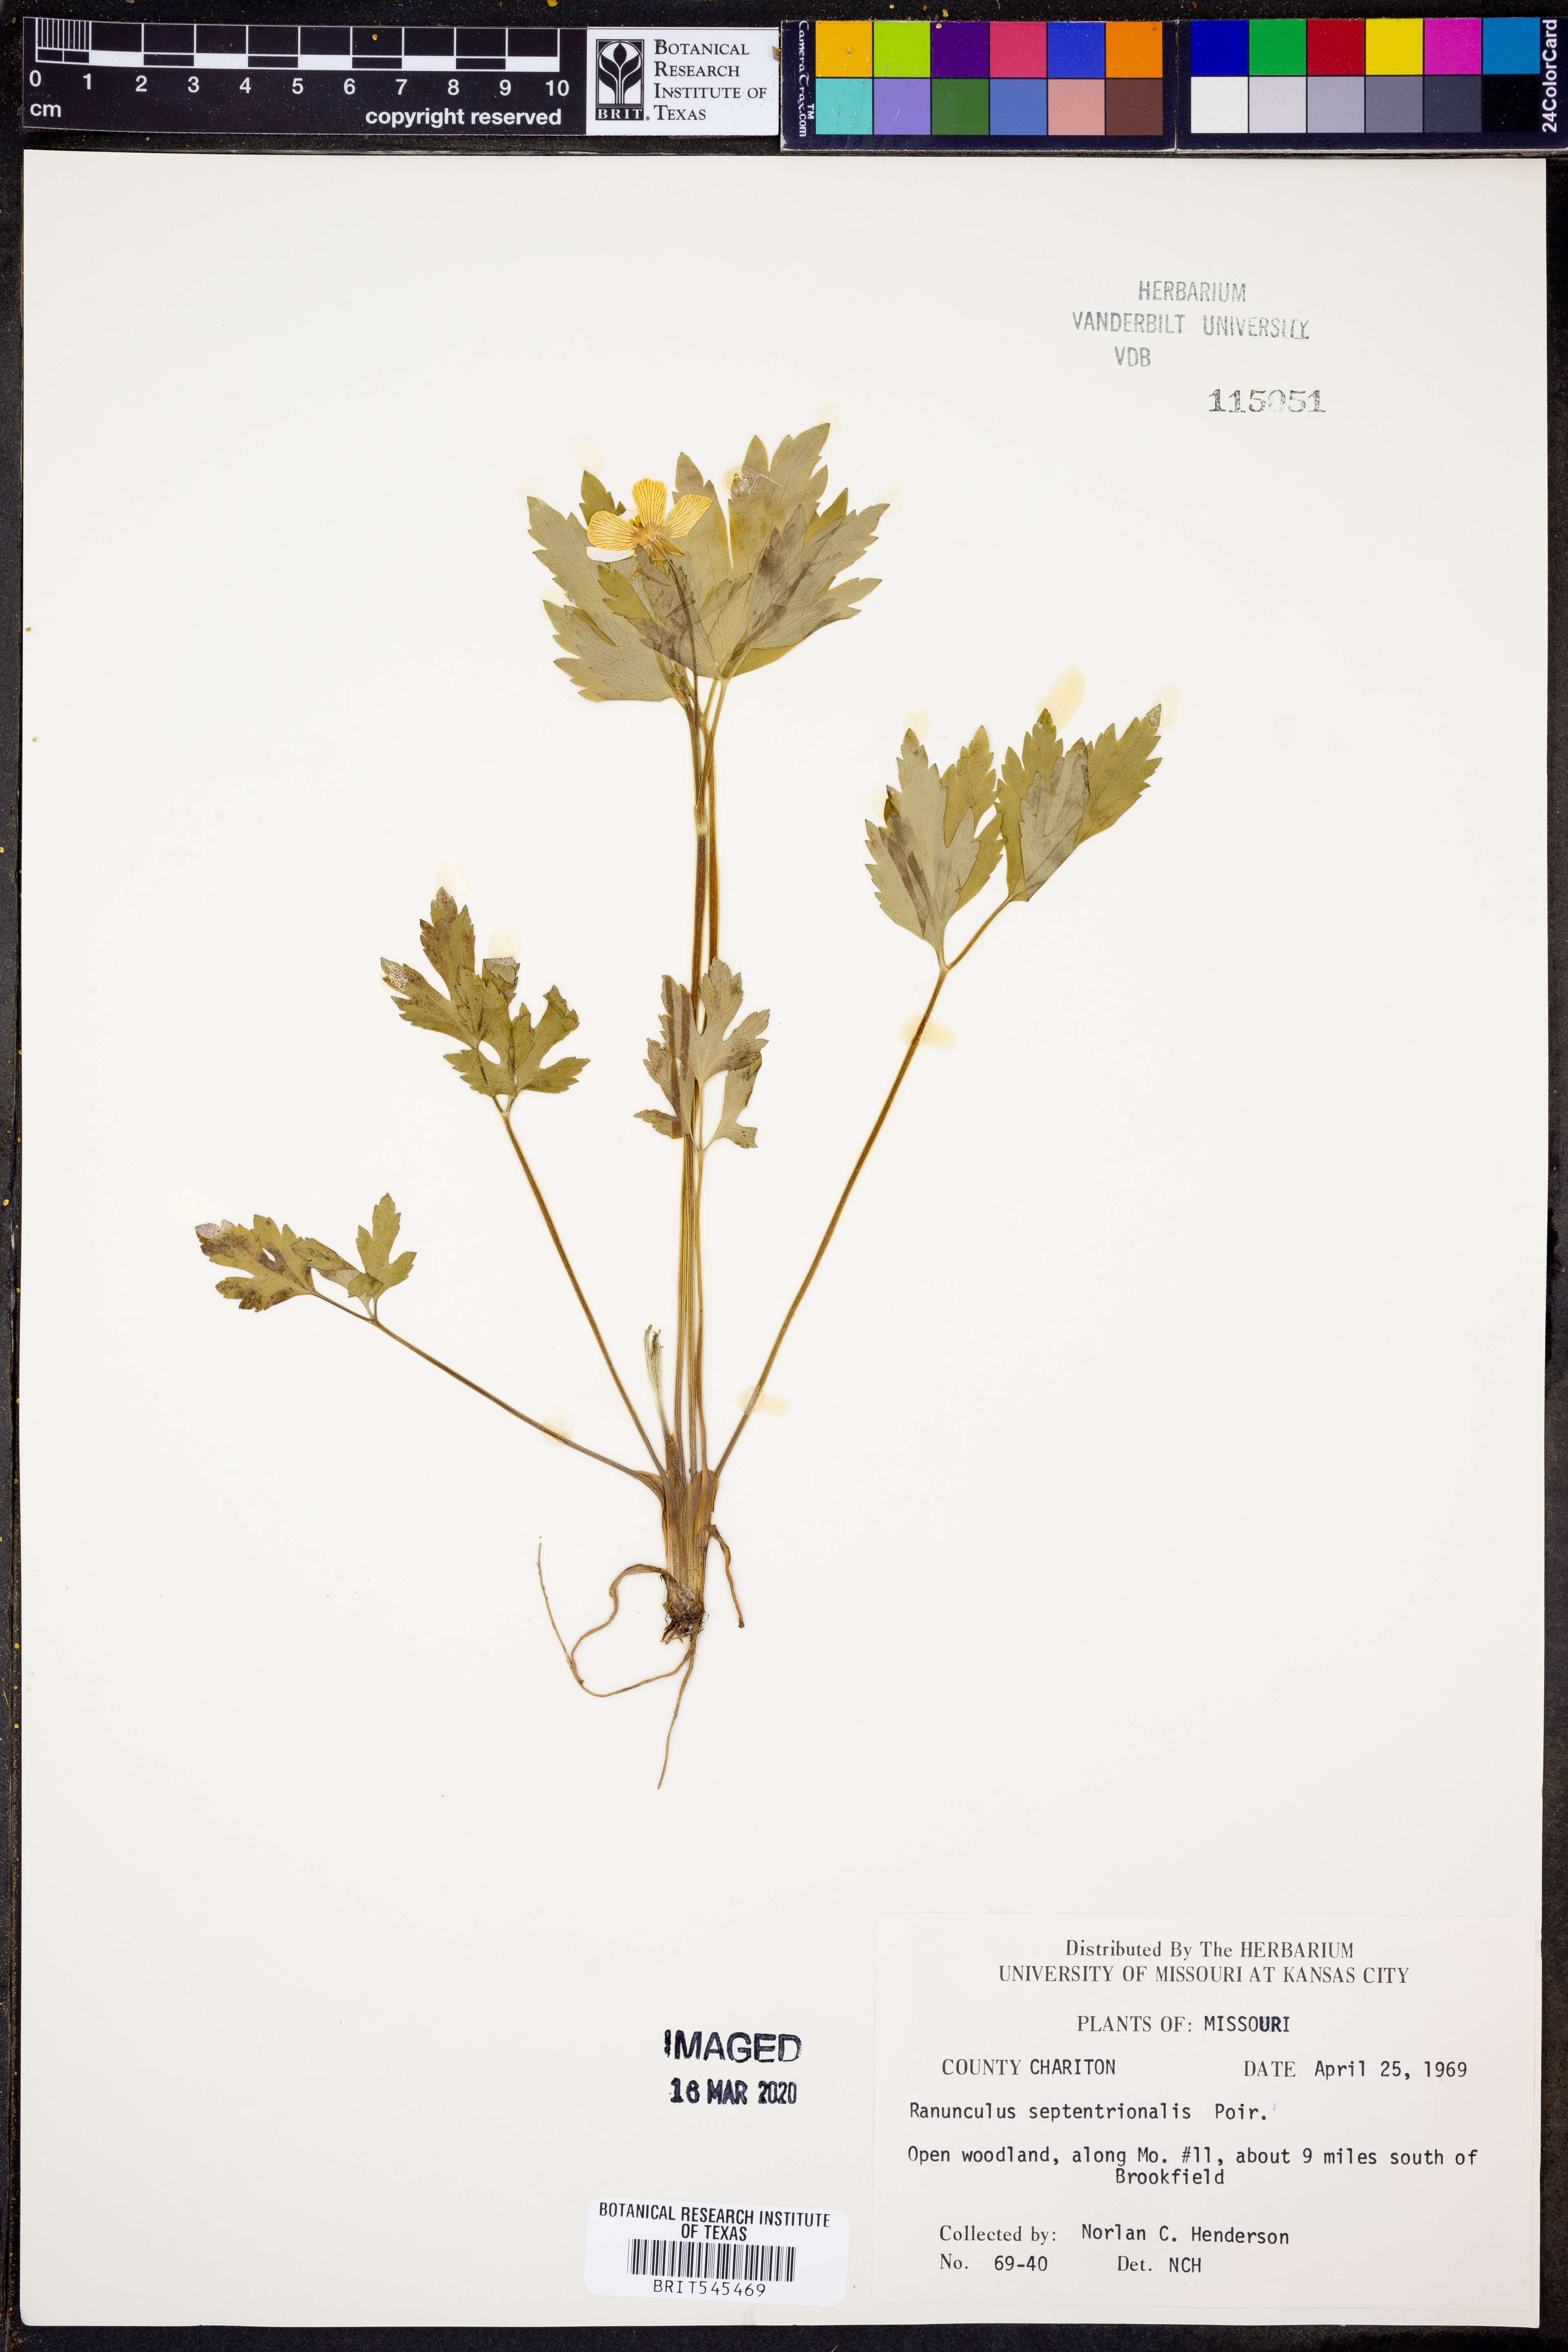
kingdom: Plantae
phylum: Tracheophyta
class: Magnoliopsida
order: Ranunculales
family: Ranunculaceae
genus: Ranunculus
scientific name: Ranunculus hispidus
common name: Bristly buttercup
